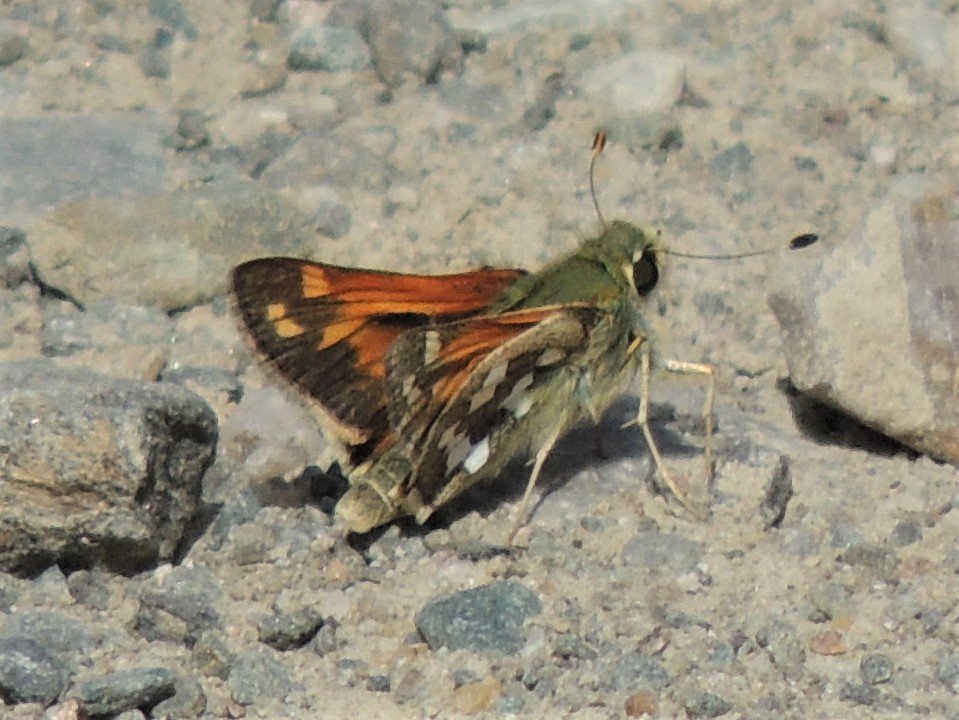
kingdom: Animalia
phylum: Arthropoda
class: Insecta
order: Lepidoptera
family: Hesperiidae
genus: Hesperia
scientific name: Hesperia juba
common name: Juba Skipper
